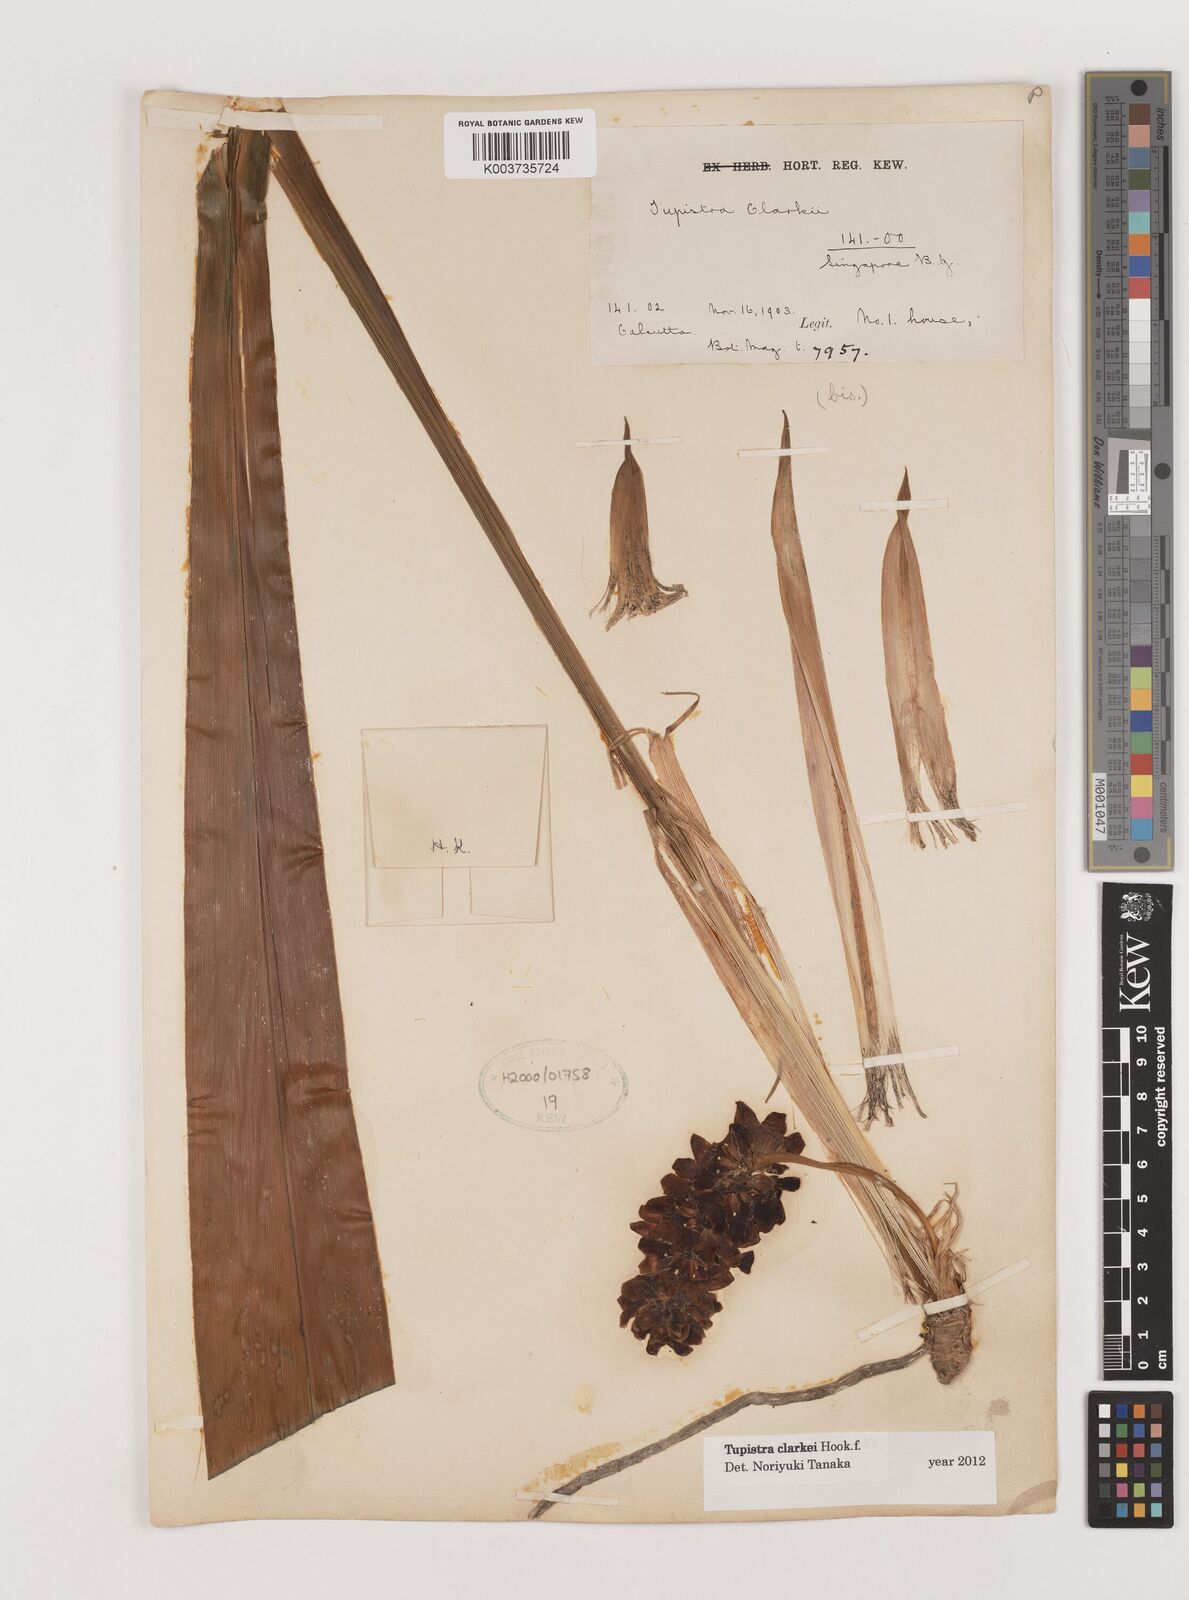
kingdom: Plantae
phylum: Tracheophyta
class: Liliopsida
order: Asparagales
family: Asparagaceae
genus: Tupistra
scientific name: Tupistra clarkei
